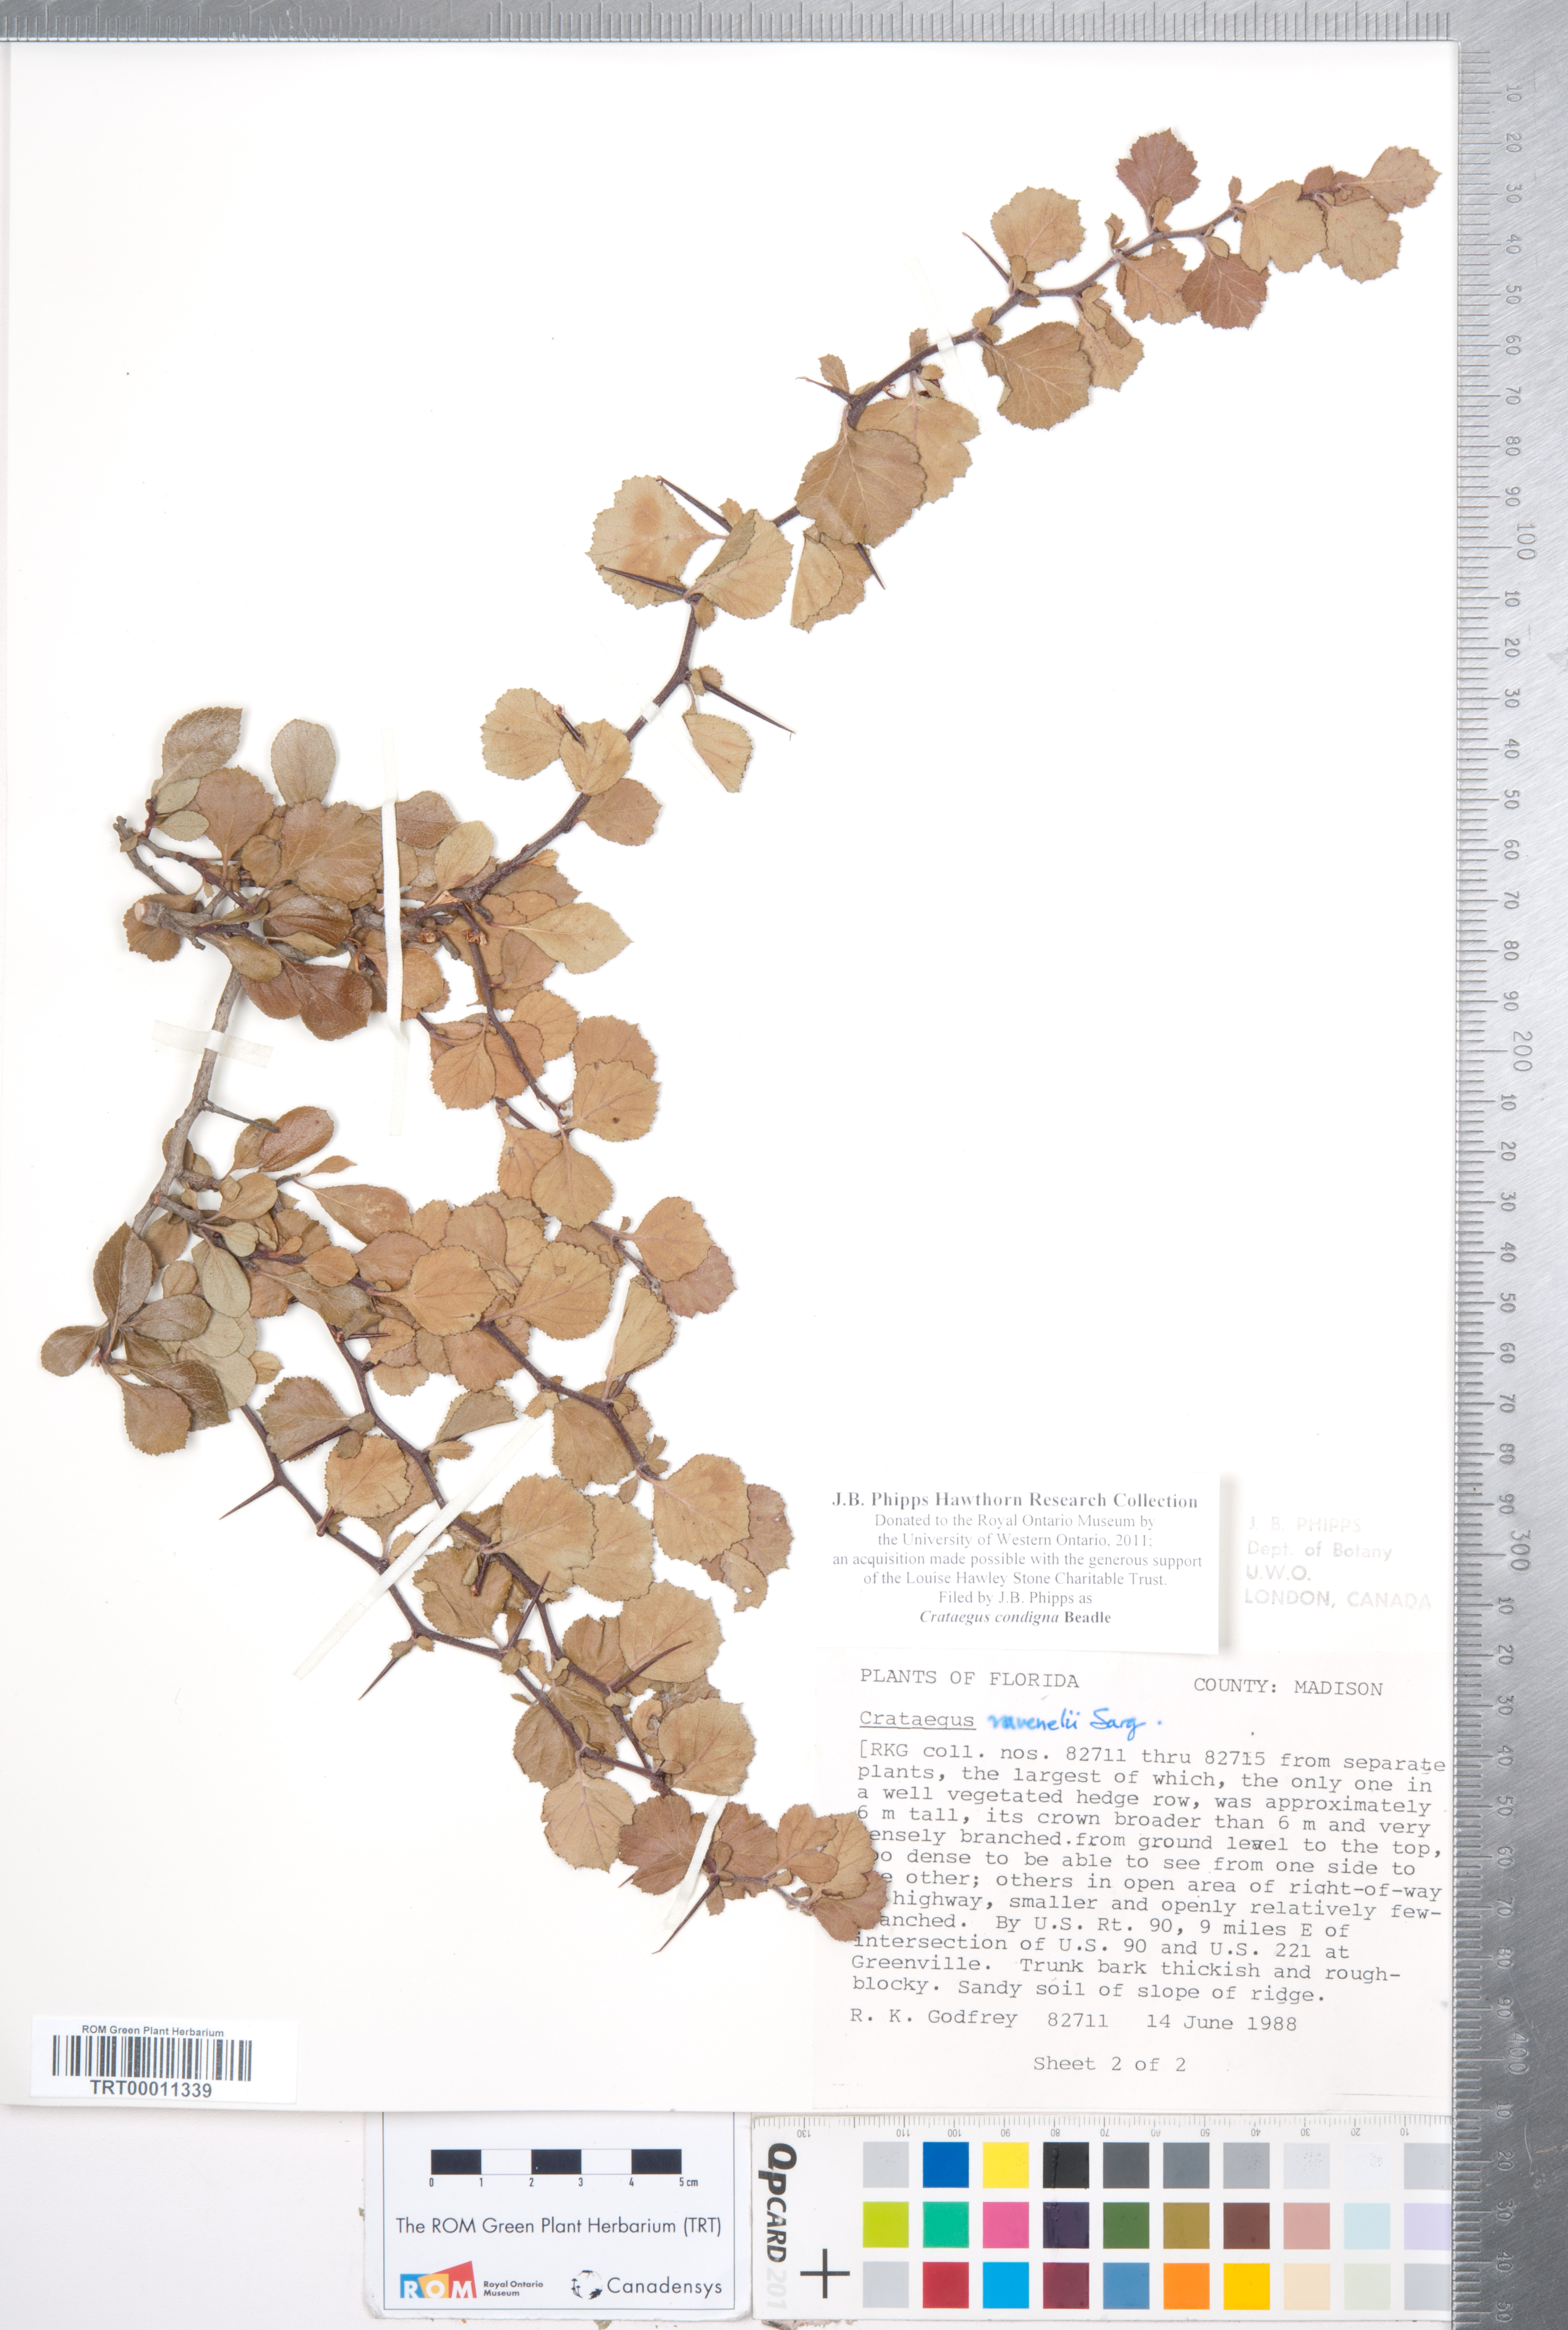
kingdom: Plantae
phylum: Tracheophyta
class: Magnoliopsida
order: Rosales
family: Rosaceae
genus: Crataegus
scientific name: Crataegus condigna
